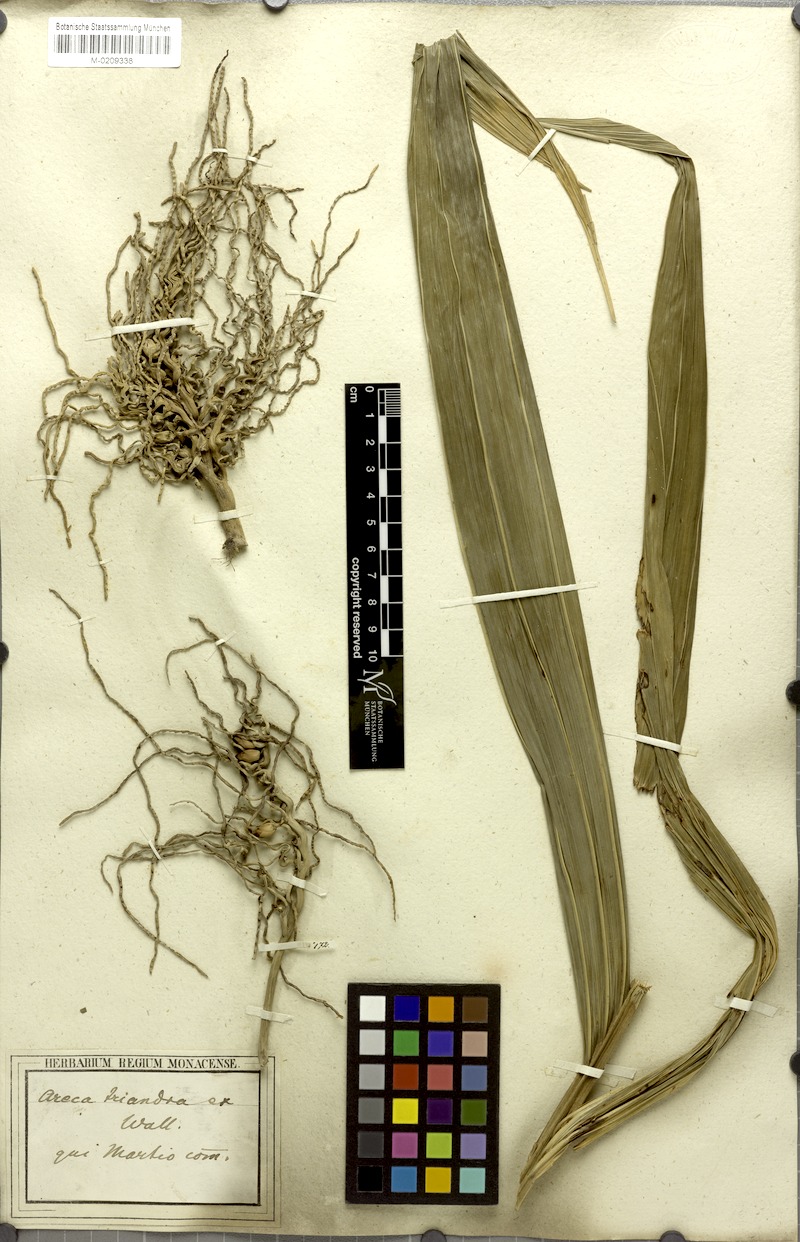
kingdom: Plantae
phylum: Tracheophyta
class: Liliopsida
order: Arecales
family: Arecaceae
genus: Areca
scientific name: Areca triandra
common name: Australian areca palm
